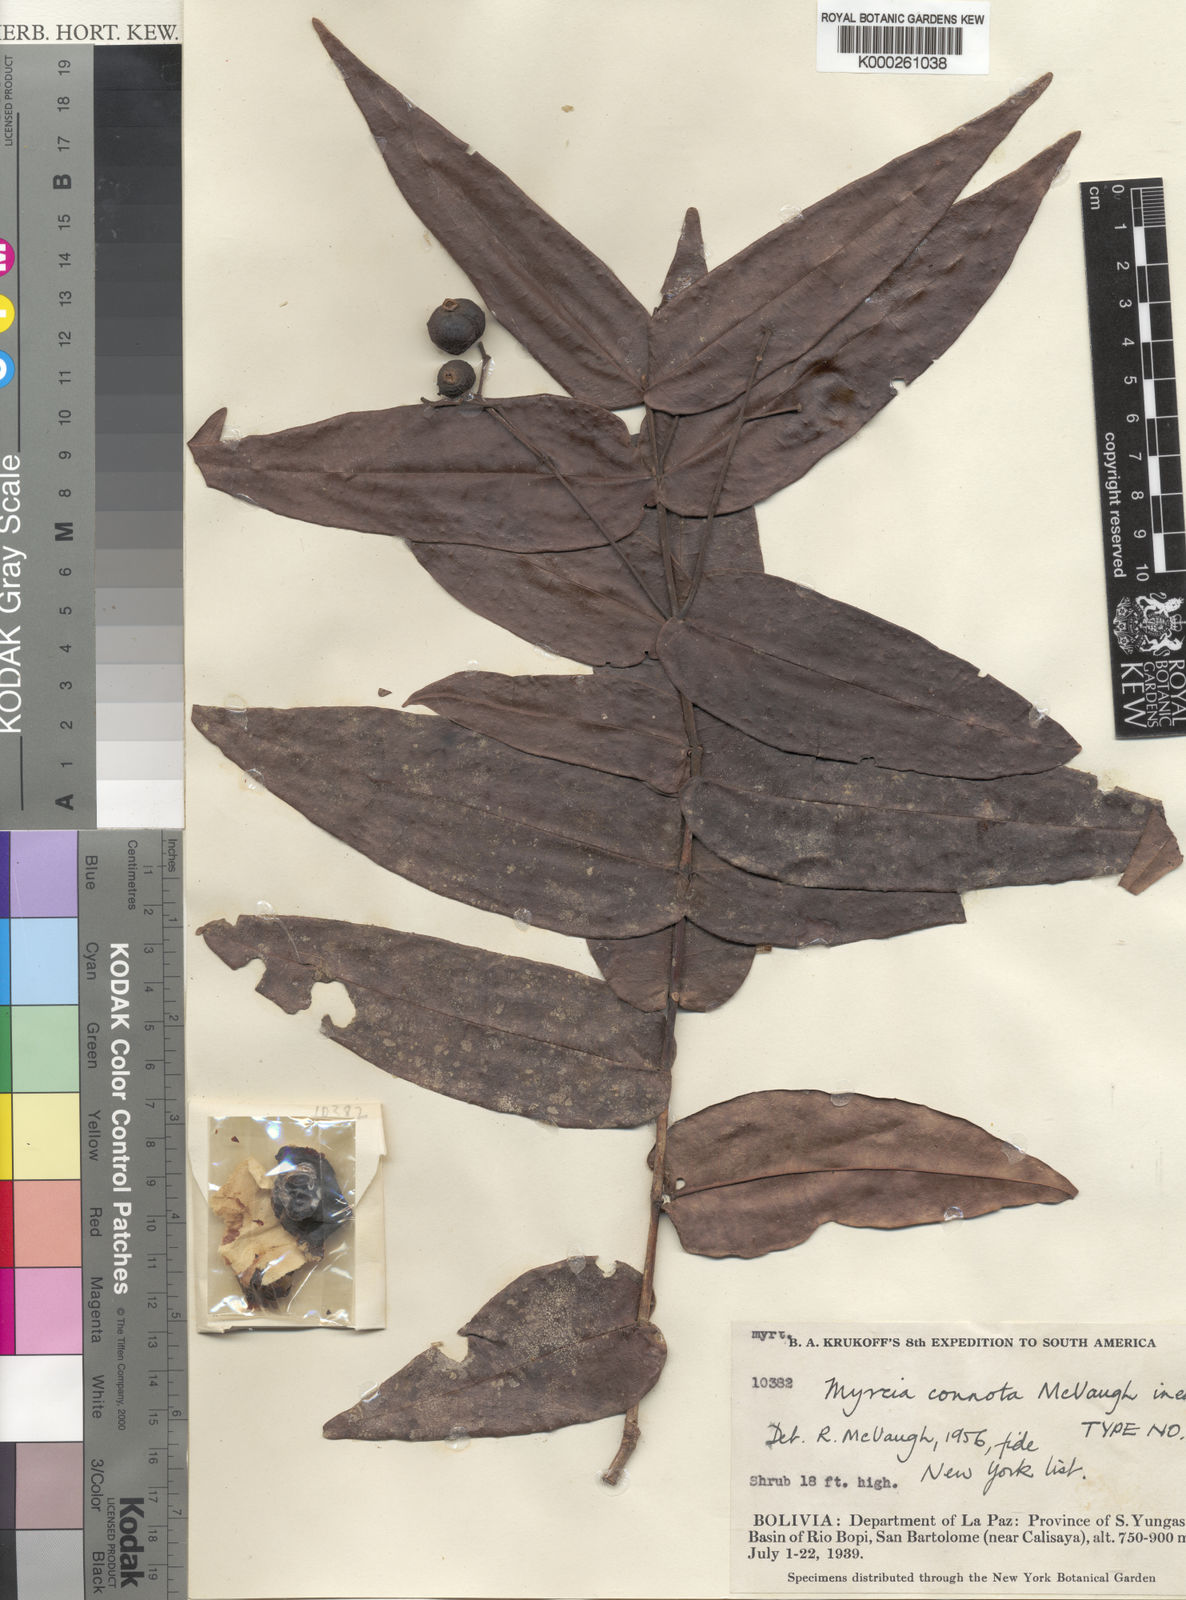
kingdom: Plantae
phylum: Tracheophyta
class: Magnoliopsida
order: Myrtales
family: Myrtaceae
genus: Myrcia
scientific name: Myrcia
